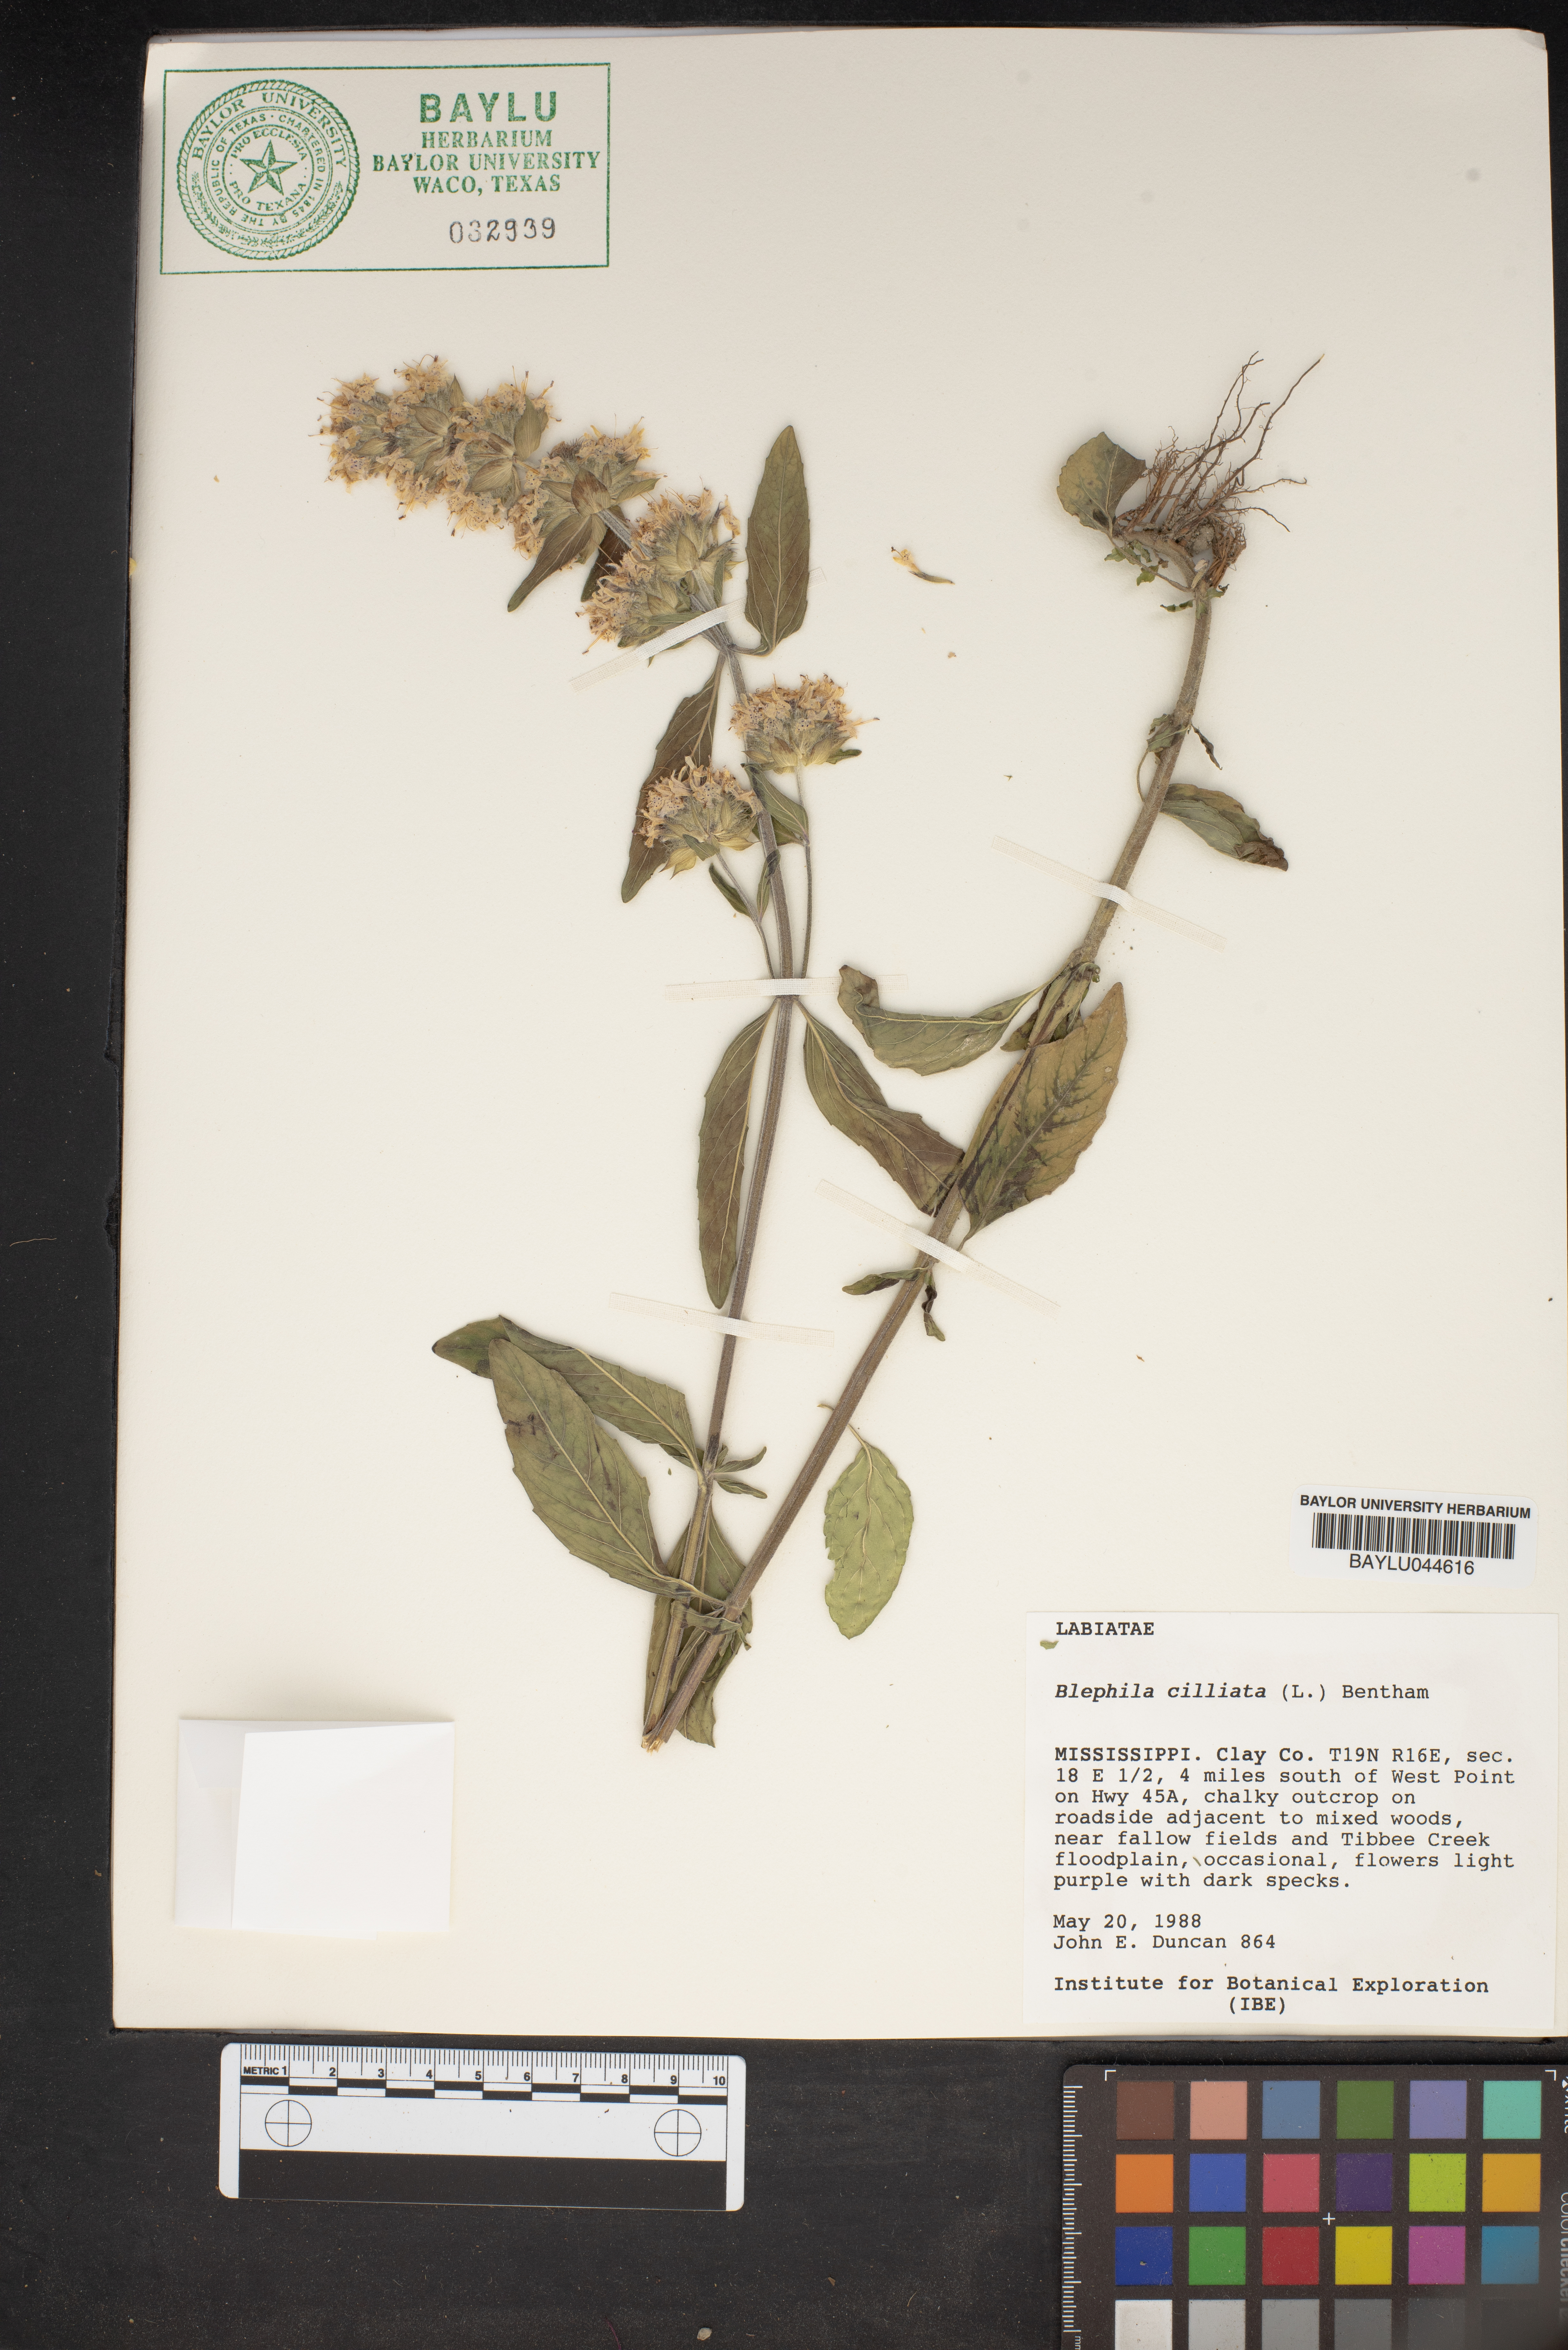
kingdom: Plantae
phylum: Tracheophyta
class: Magnoliopsida
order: Lamiales
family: Lamiaceae
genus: Blephilia
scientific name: Blephilia ciliata
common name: Downy blephilia
